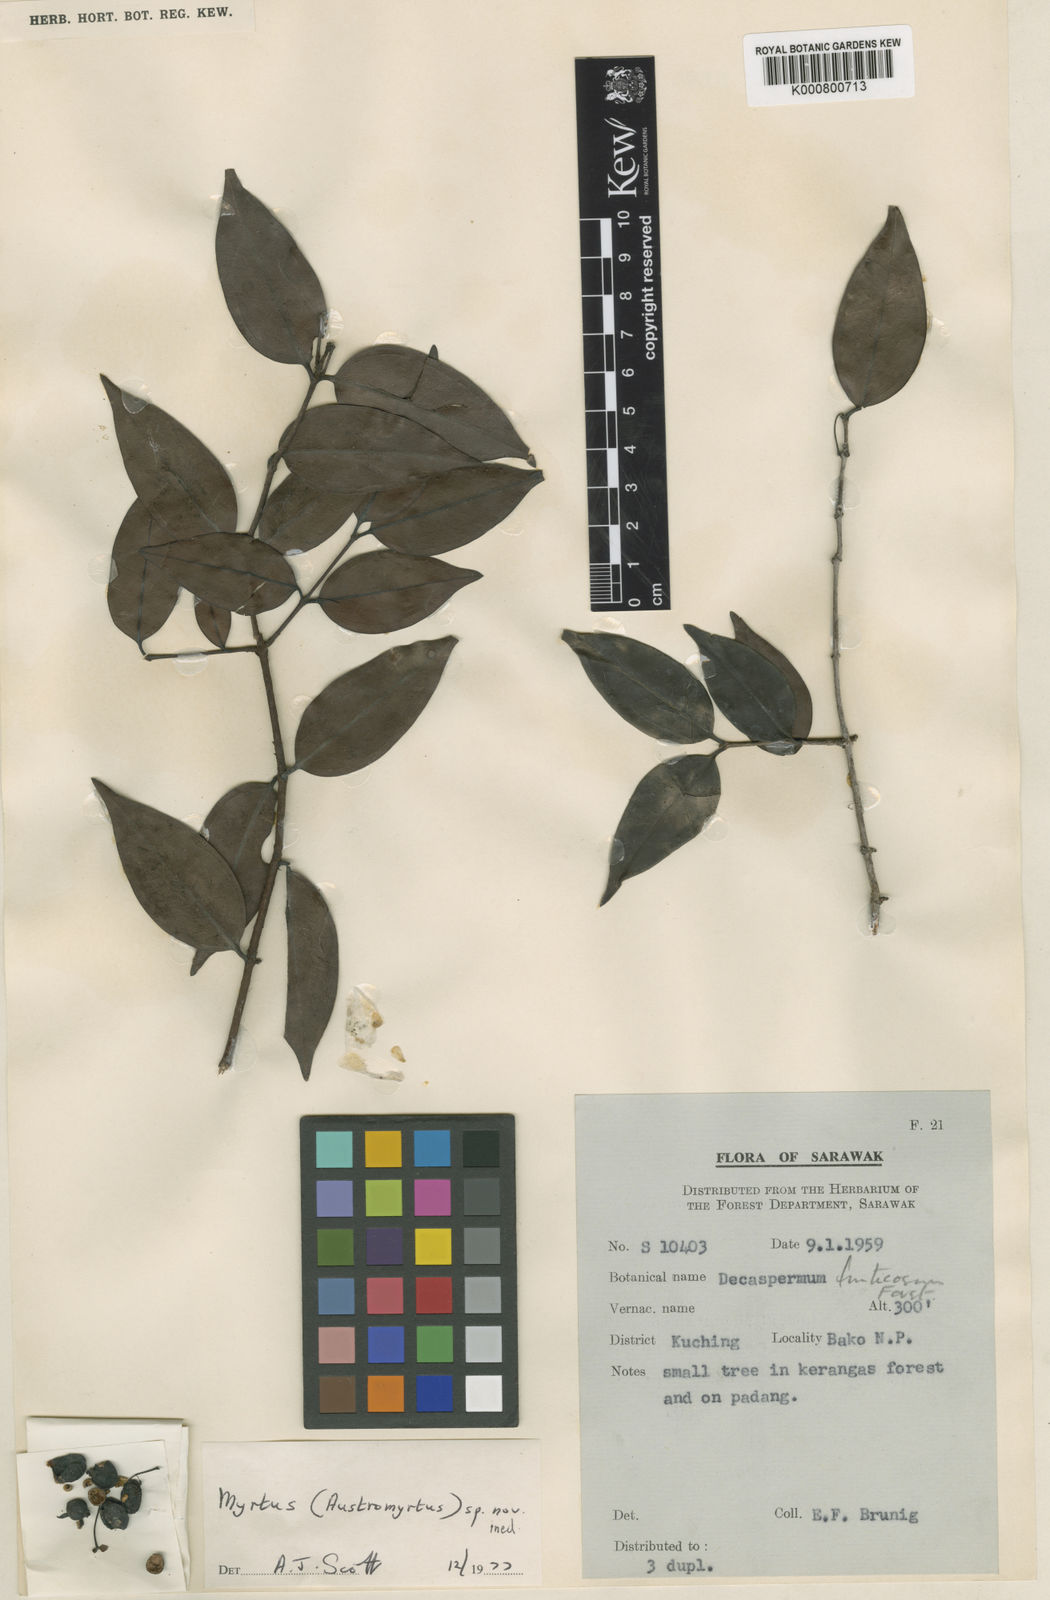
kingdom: Plantae
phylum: Tracheophyta
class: Magnoliopsida
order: Myrtales
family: Myrtaceae
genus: Uromyrtus
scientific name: Uromyrtus sarawakensis
